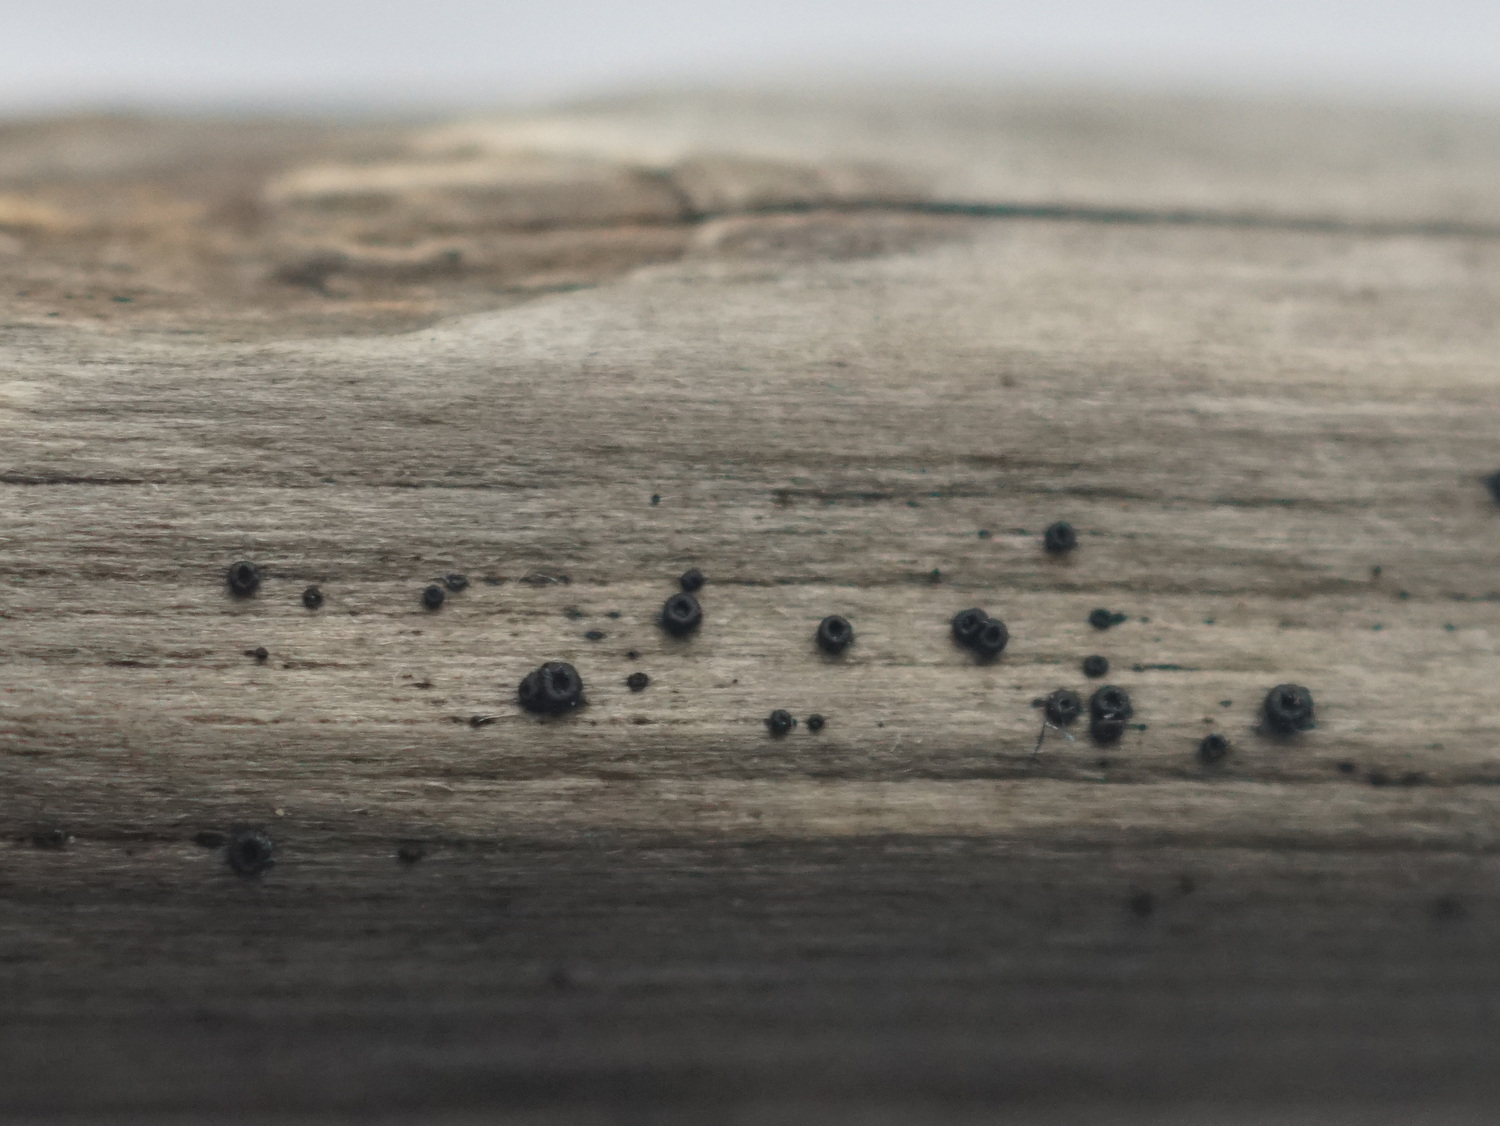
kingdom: Fungi
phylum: Ascomycota
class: Leotiomycetes
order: Helotiales
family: Heterosphaeriaceae
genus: Heterosphaeria
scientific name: Heterosphaeria
